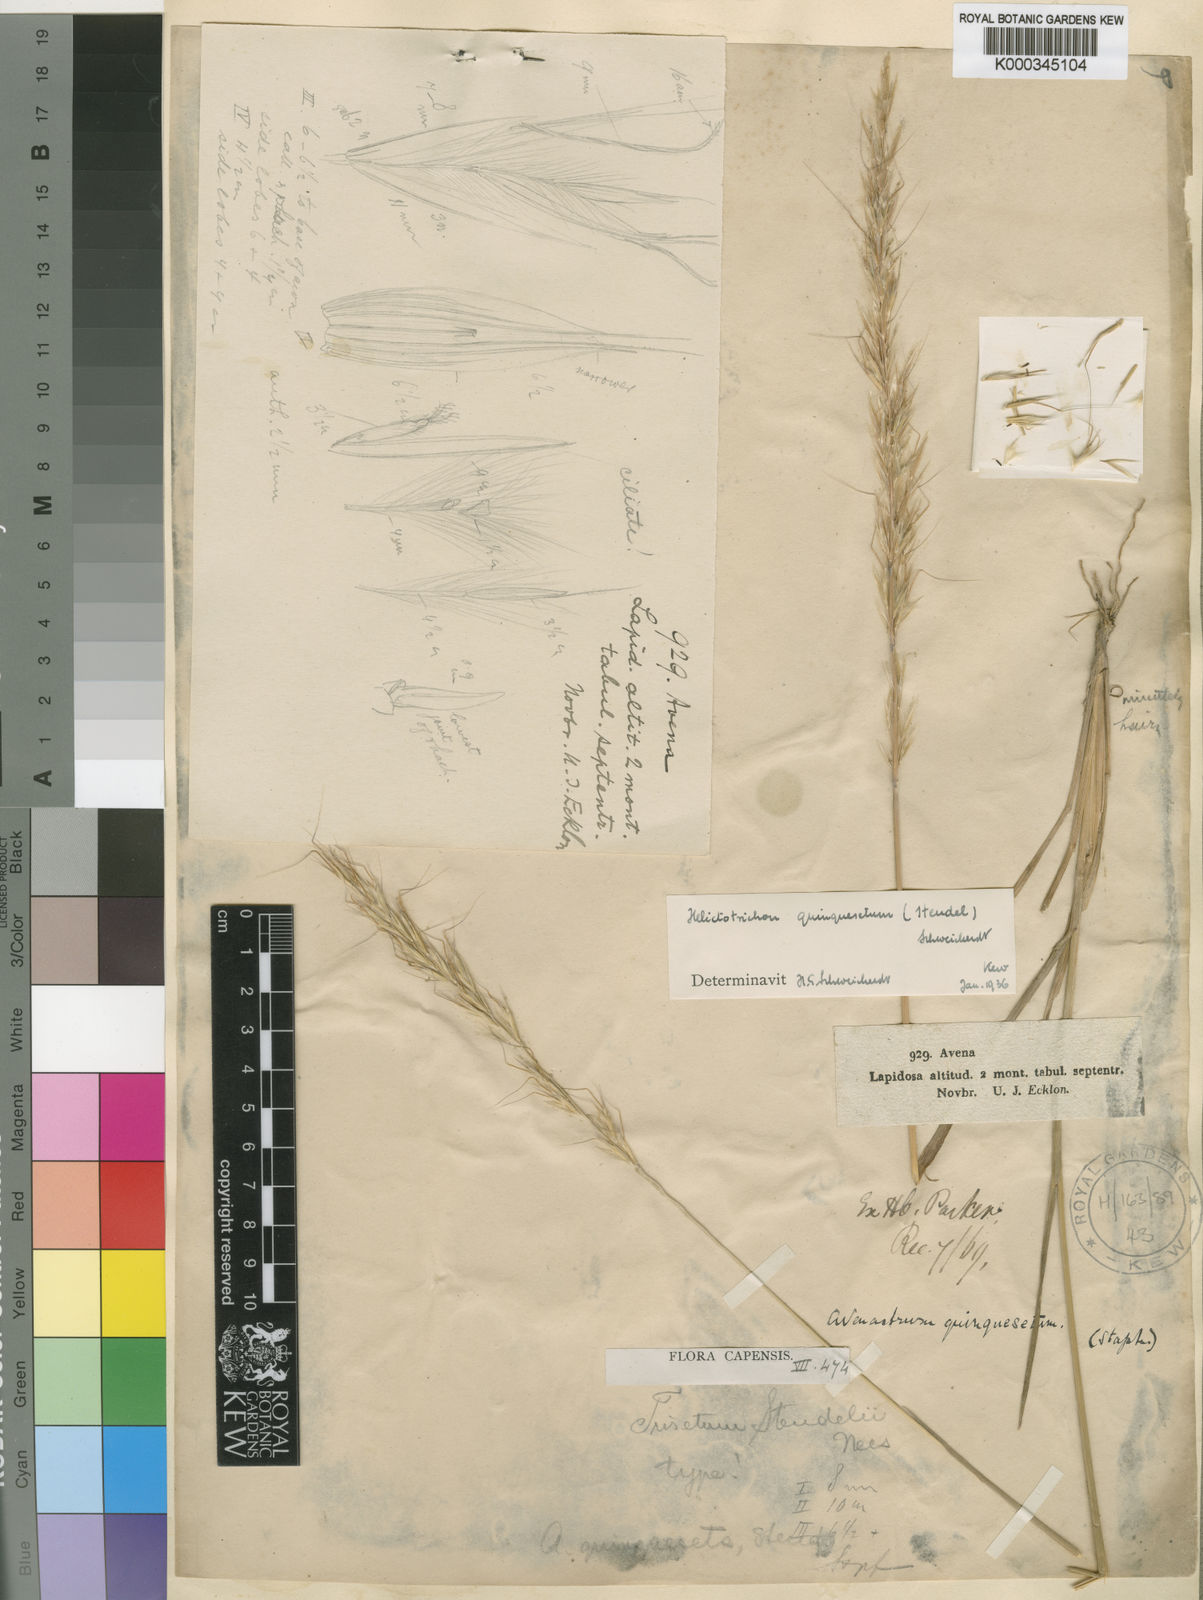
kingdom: Plantae
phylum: Tracheophyta
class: Liliopsida
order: Poales
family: Poaceae
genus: Trisetopsis
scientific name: Trisetopsis quinqueseta
